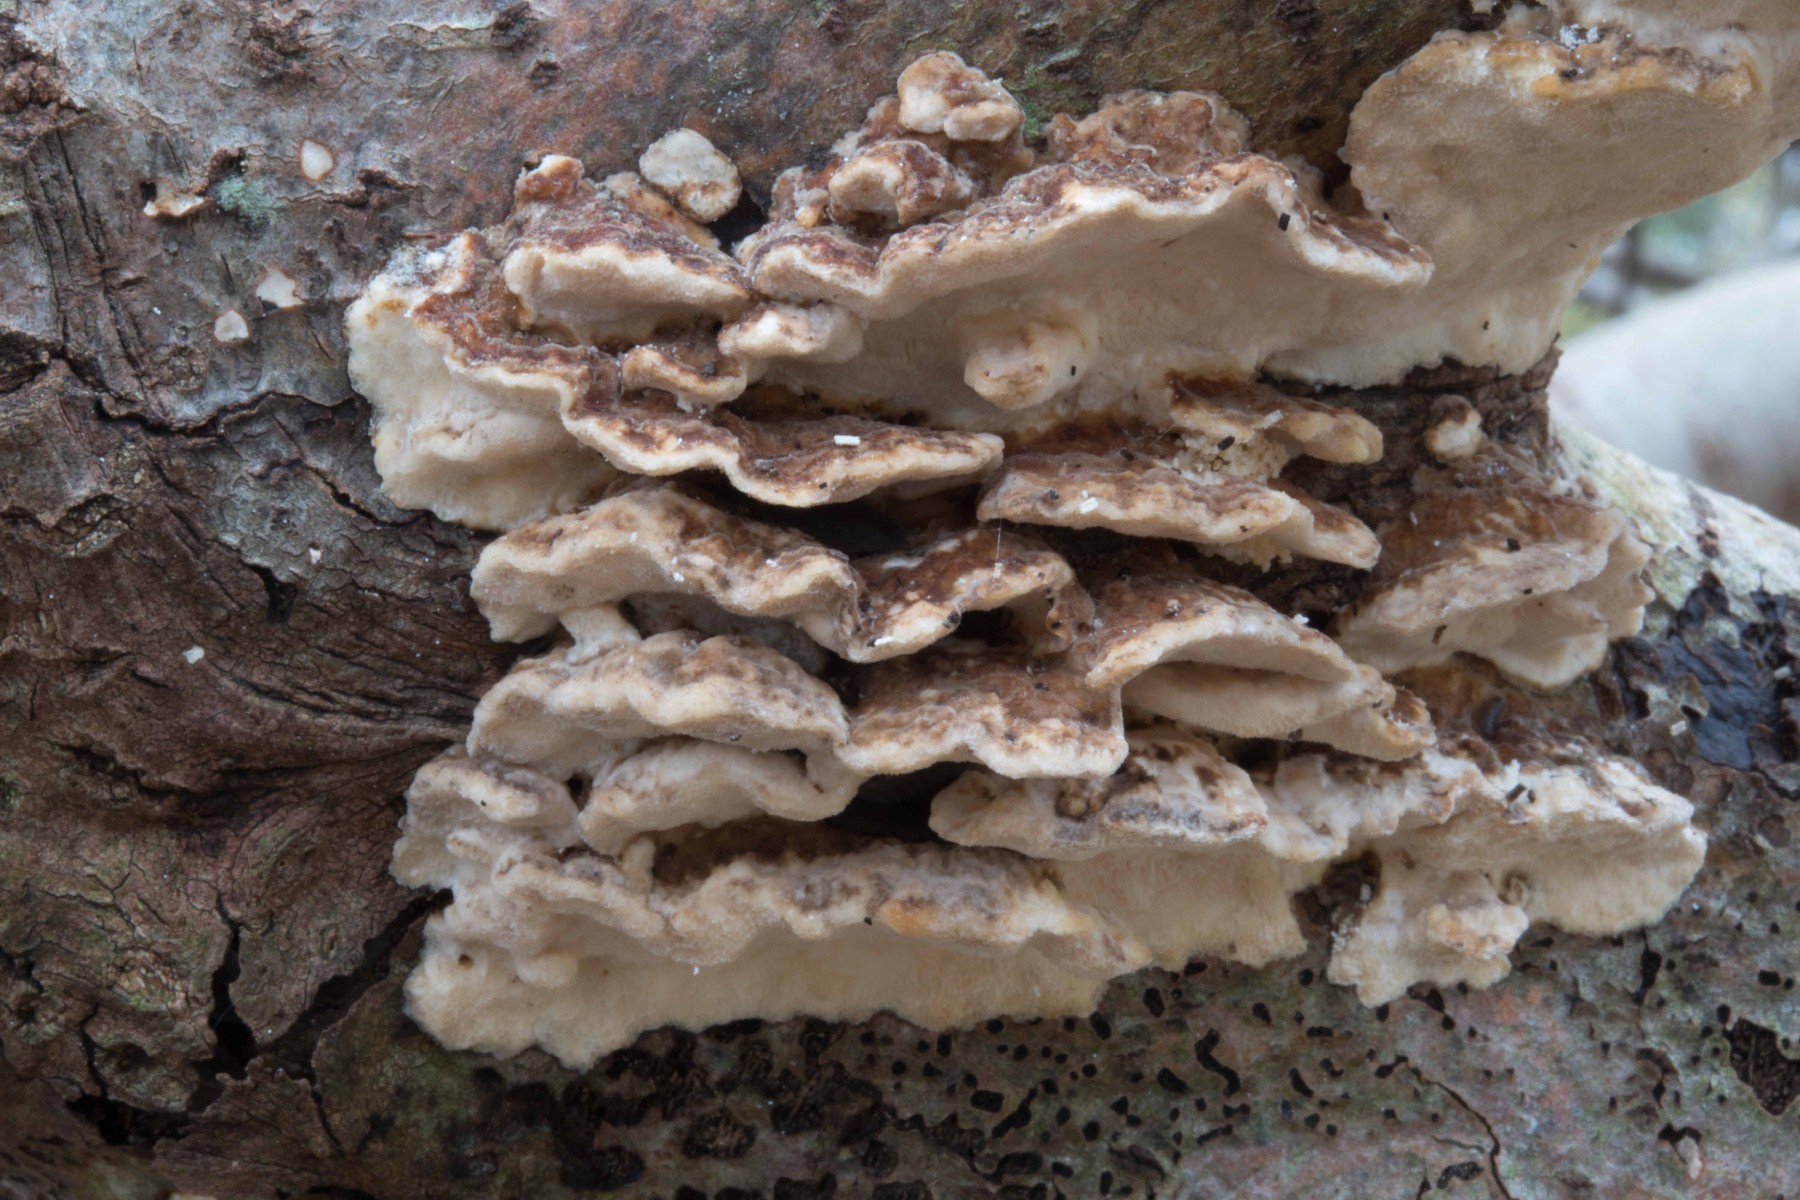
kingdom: Fungi
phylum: Basidiomycota
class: Agaricomycetes
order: Polyporales
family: Polyporaceae
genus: Trametes
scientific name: Trametes ochracea
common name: bæltet læderporesvamp
